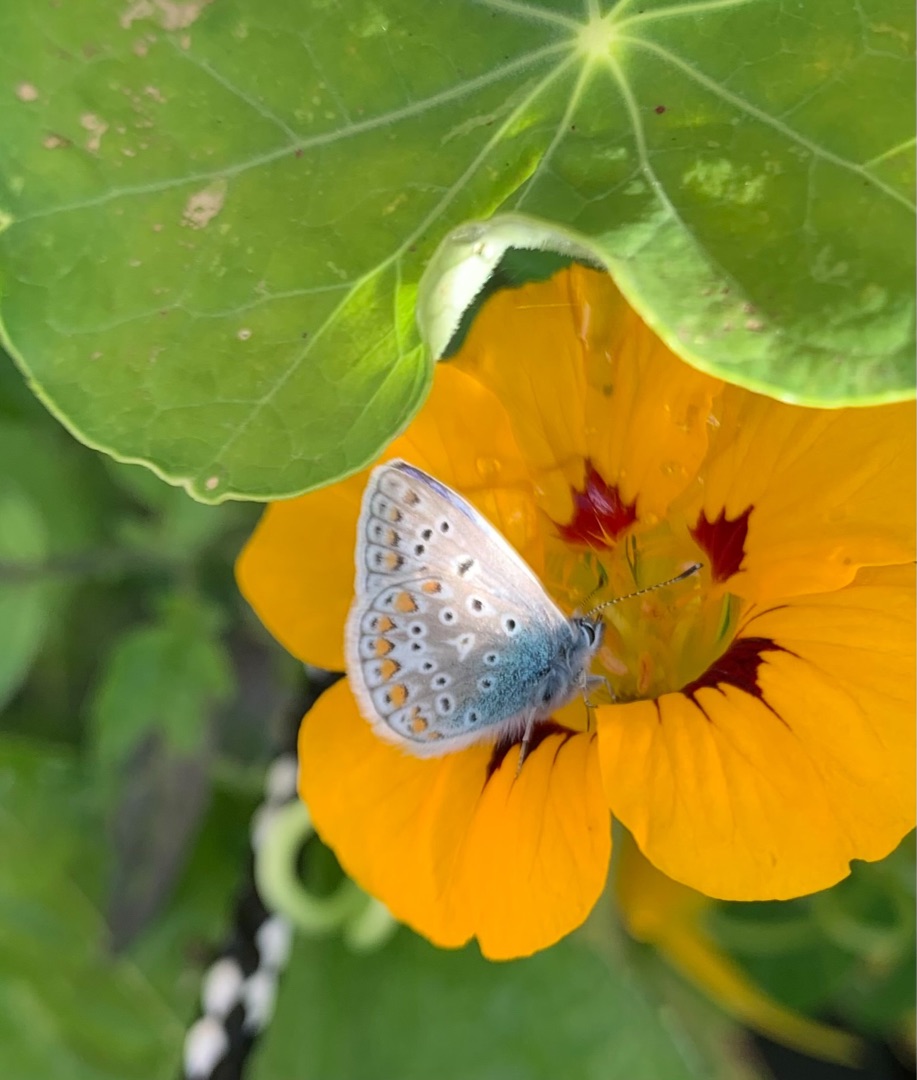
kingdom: Animalia
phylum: Arthropoda
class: Insecta
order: Lepidoptera
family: Lycaenidae
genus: Polyommatus
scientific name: Polyommatus icarus
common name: Almindelig blåfugl
